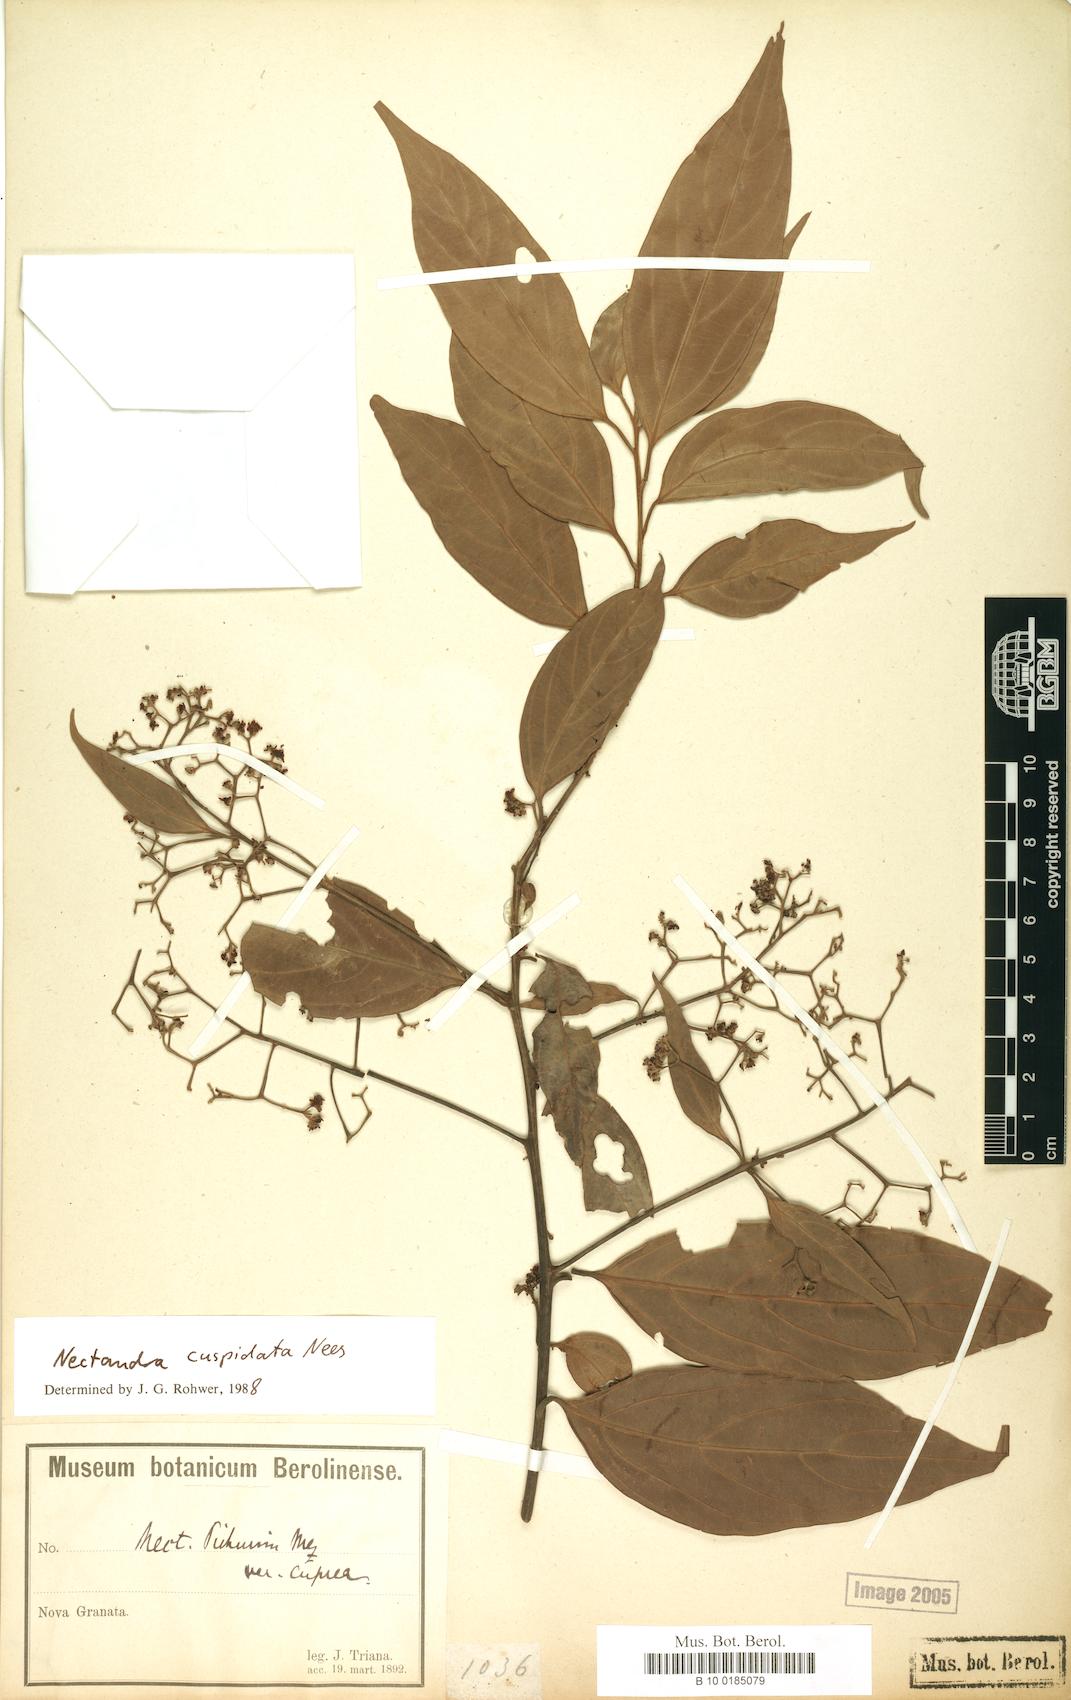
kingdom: Plantae
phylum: Tracheophyta
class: Magnoliopsida
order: Laurales
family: Lauraceae
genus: Nectandra
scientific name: Nectandra cuspidata
